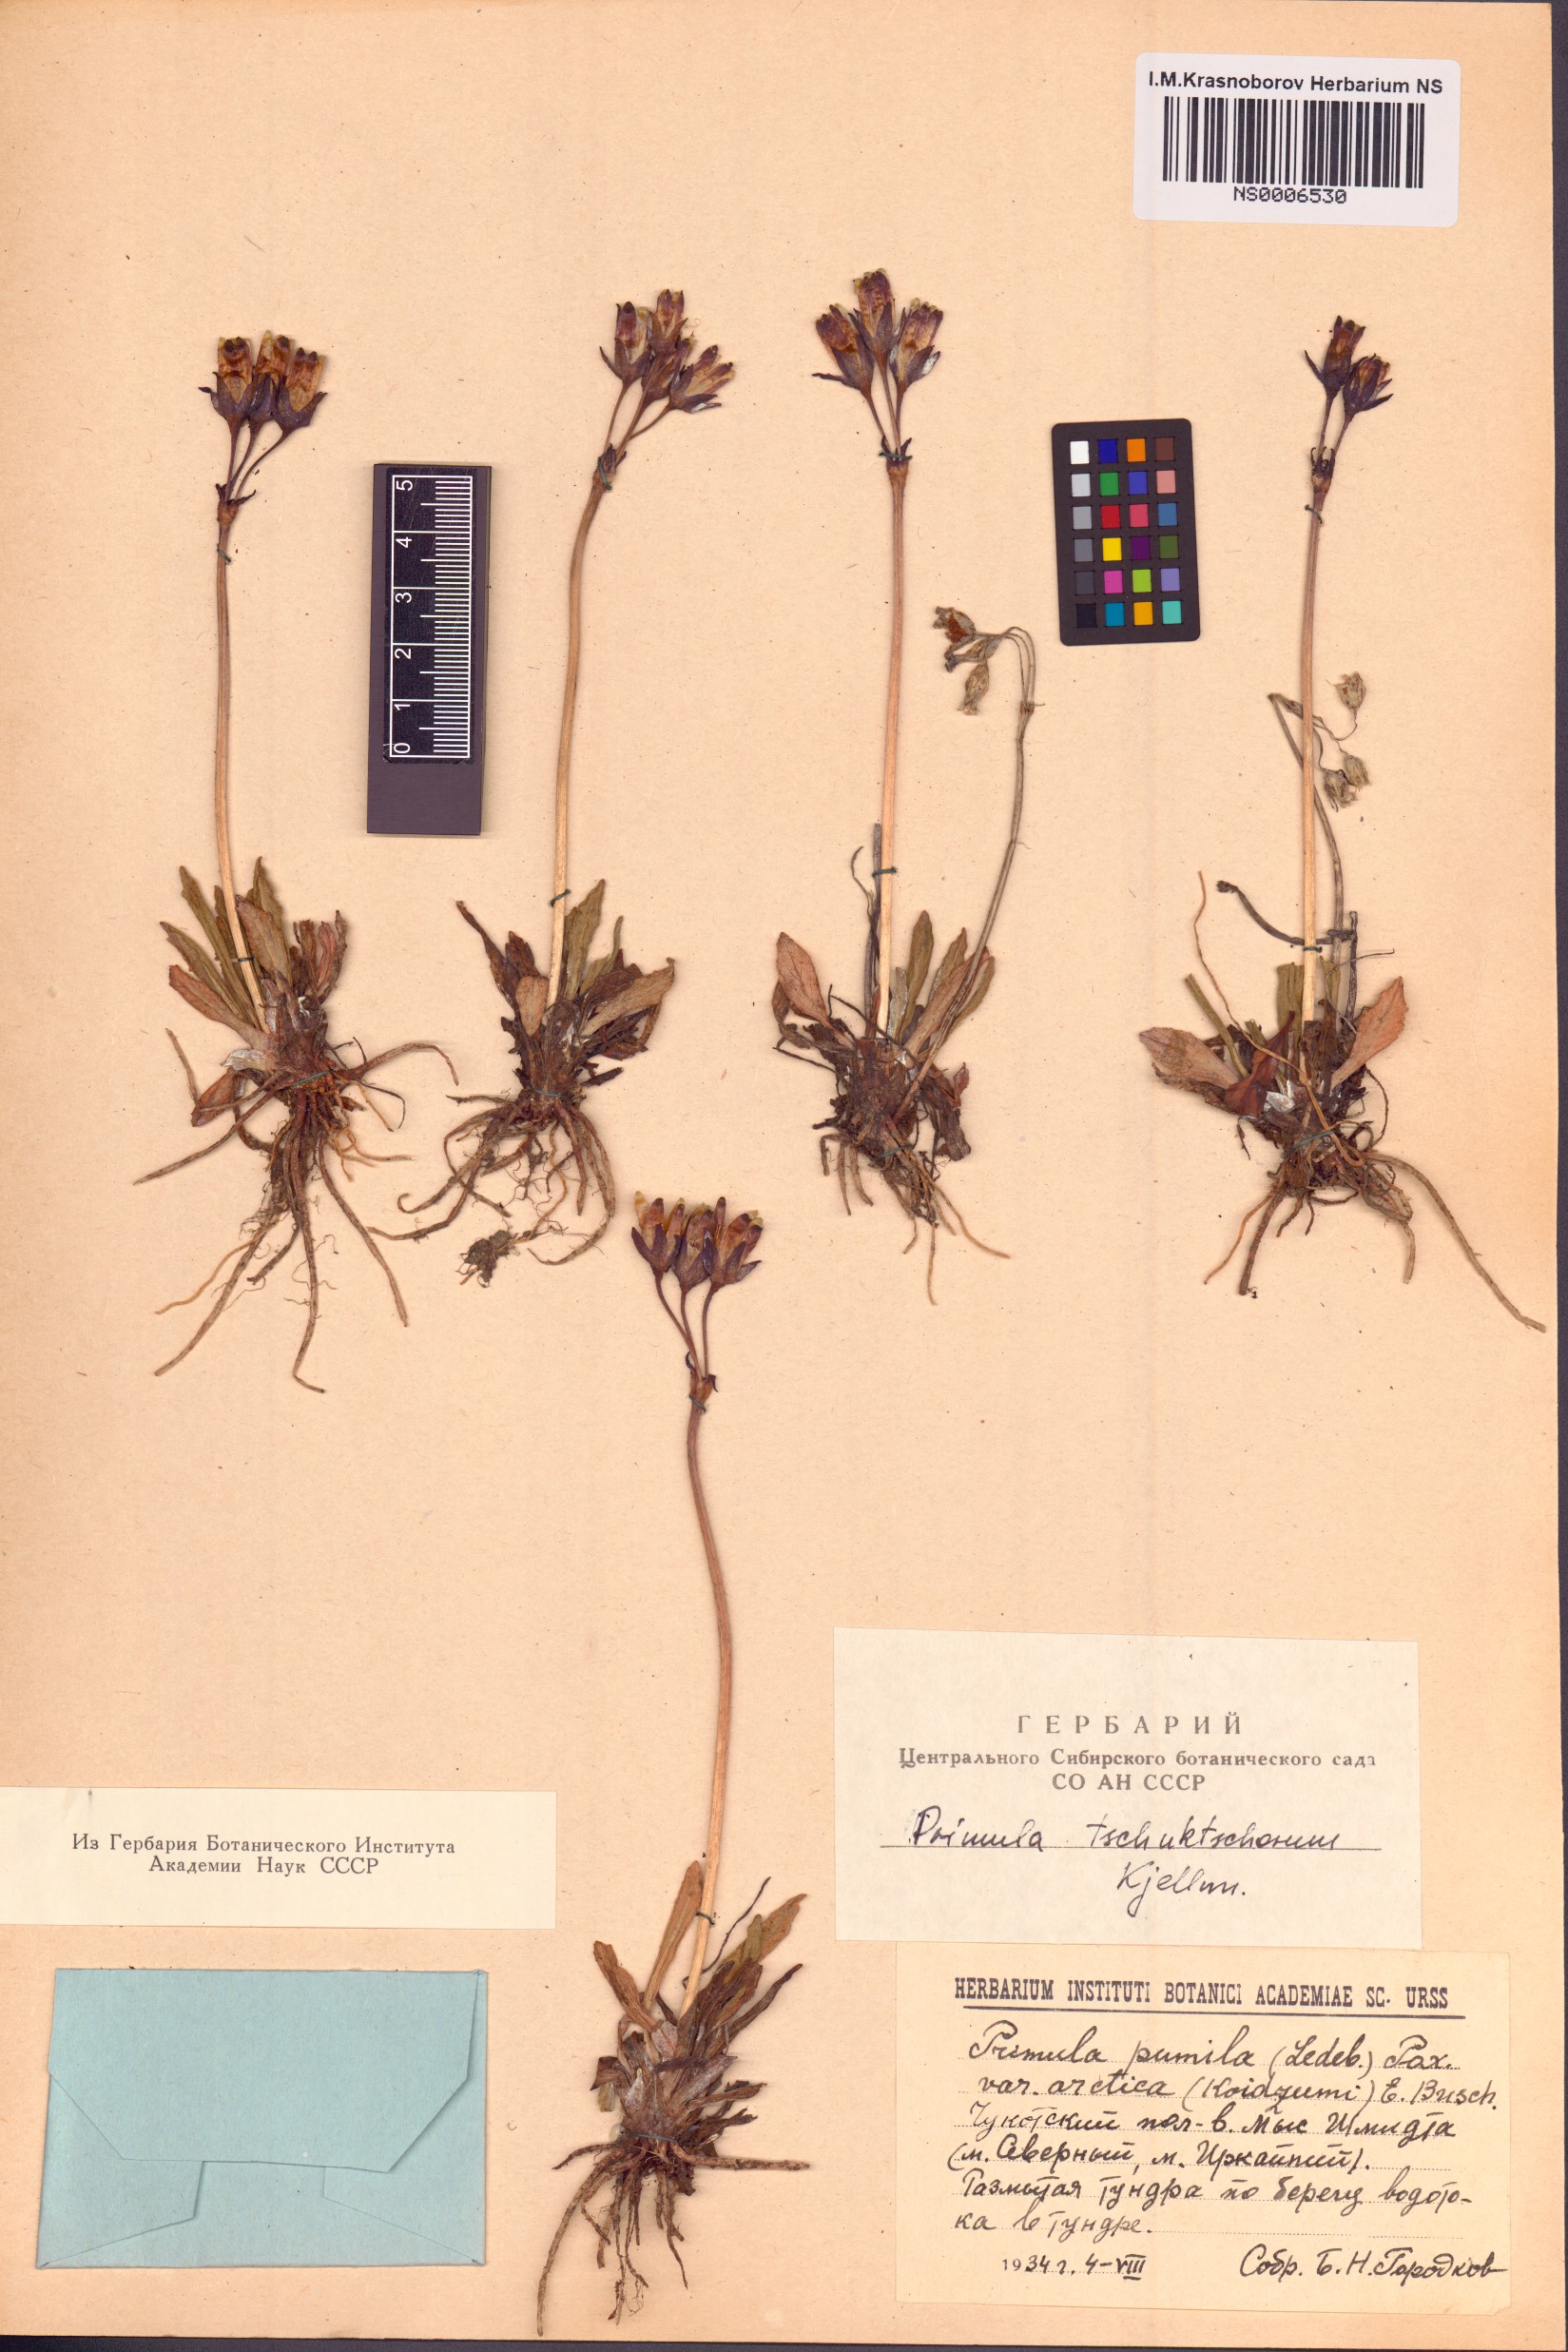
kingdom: Plantae
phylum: Tracheophyta
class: Magnoliopsida
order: Ericales
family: Primulaceae
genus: Primula
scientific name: Primula tschuktschorum
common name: Chukchi primrose
